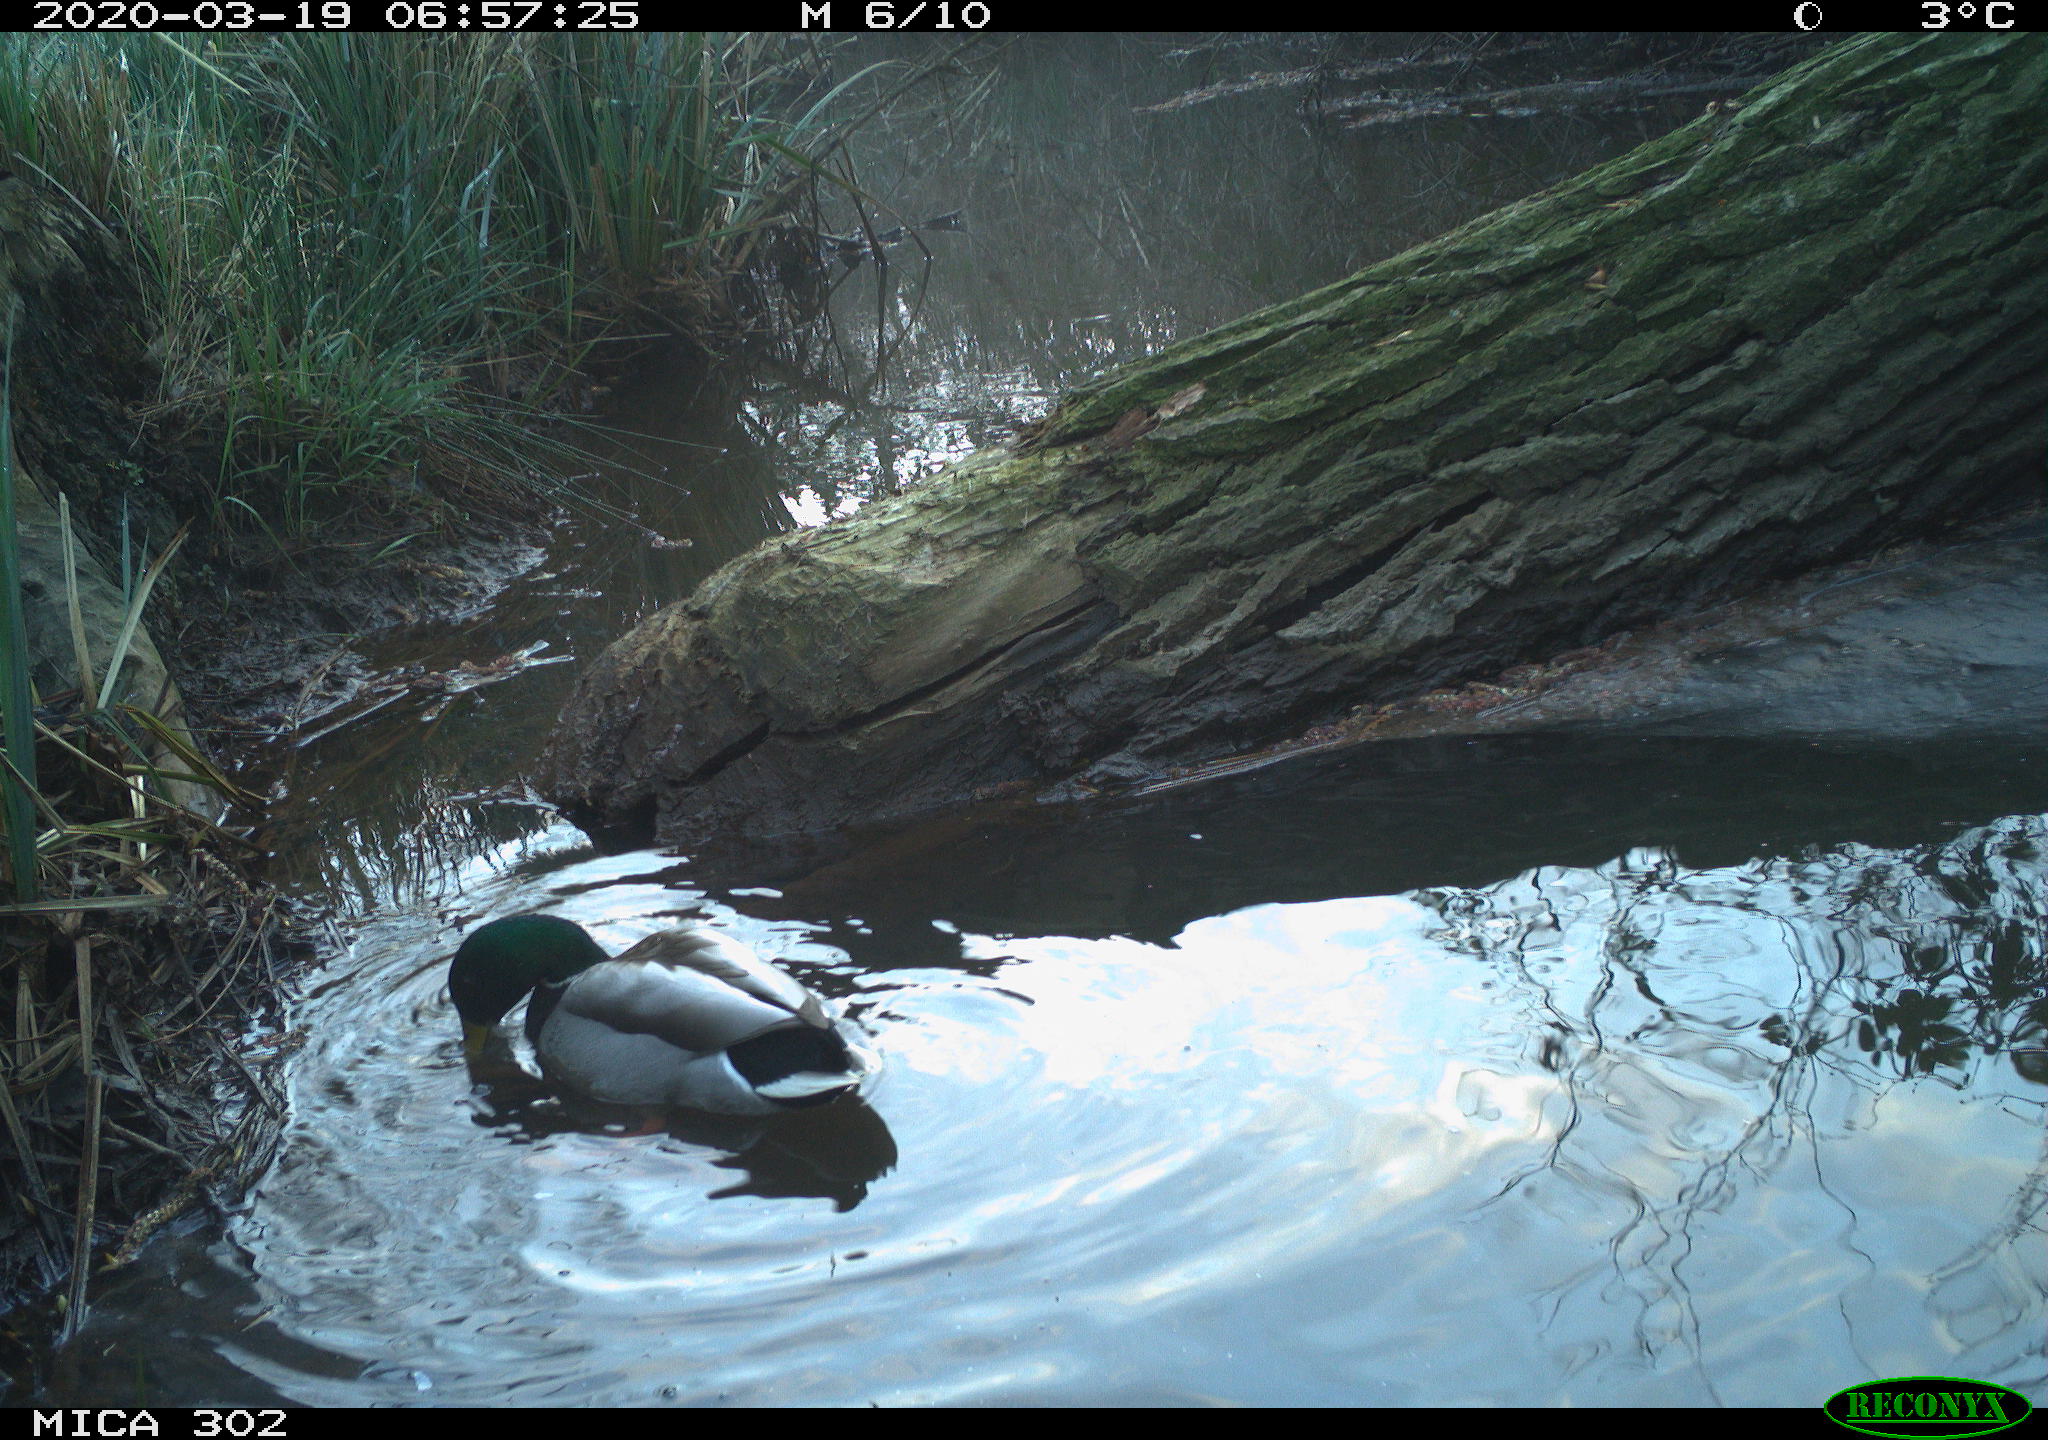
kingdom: Animalia
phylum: Chordata
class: Aves
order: Anseriformes
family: Anatidae
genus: Anas
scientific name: Anas platyrhynchos
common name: Mallard
